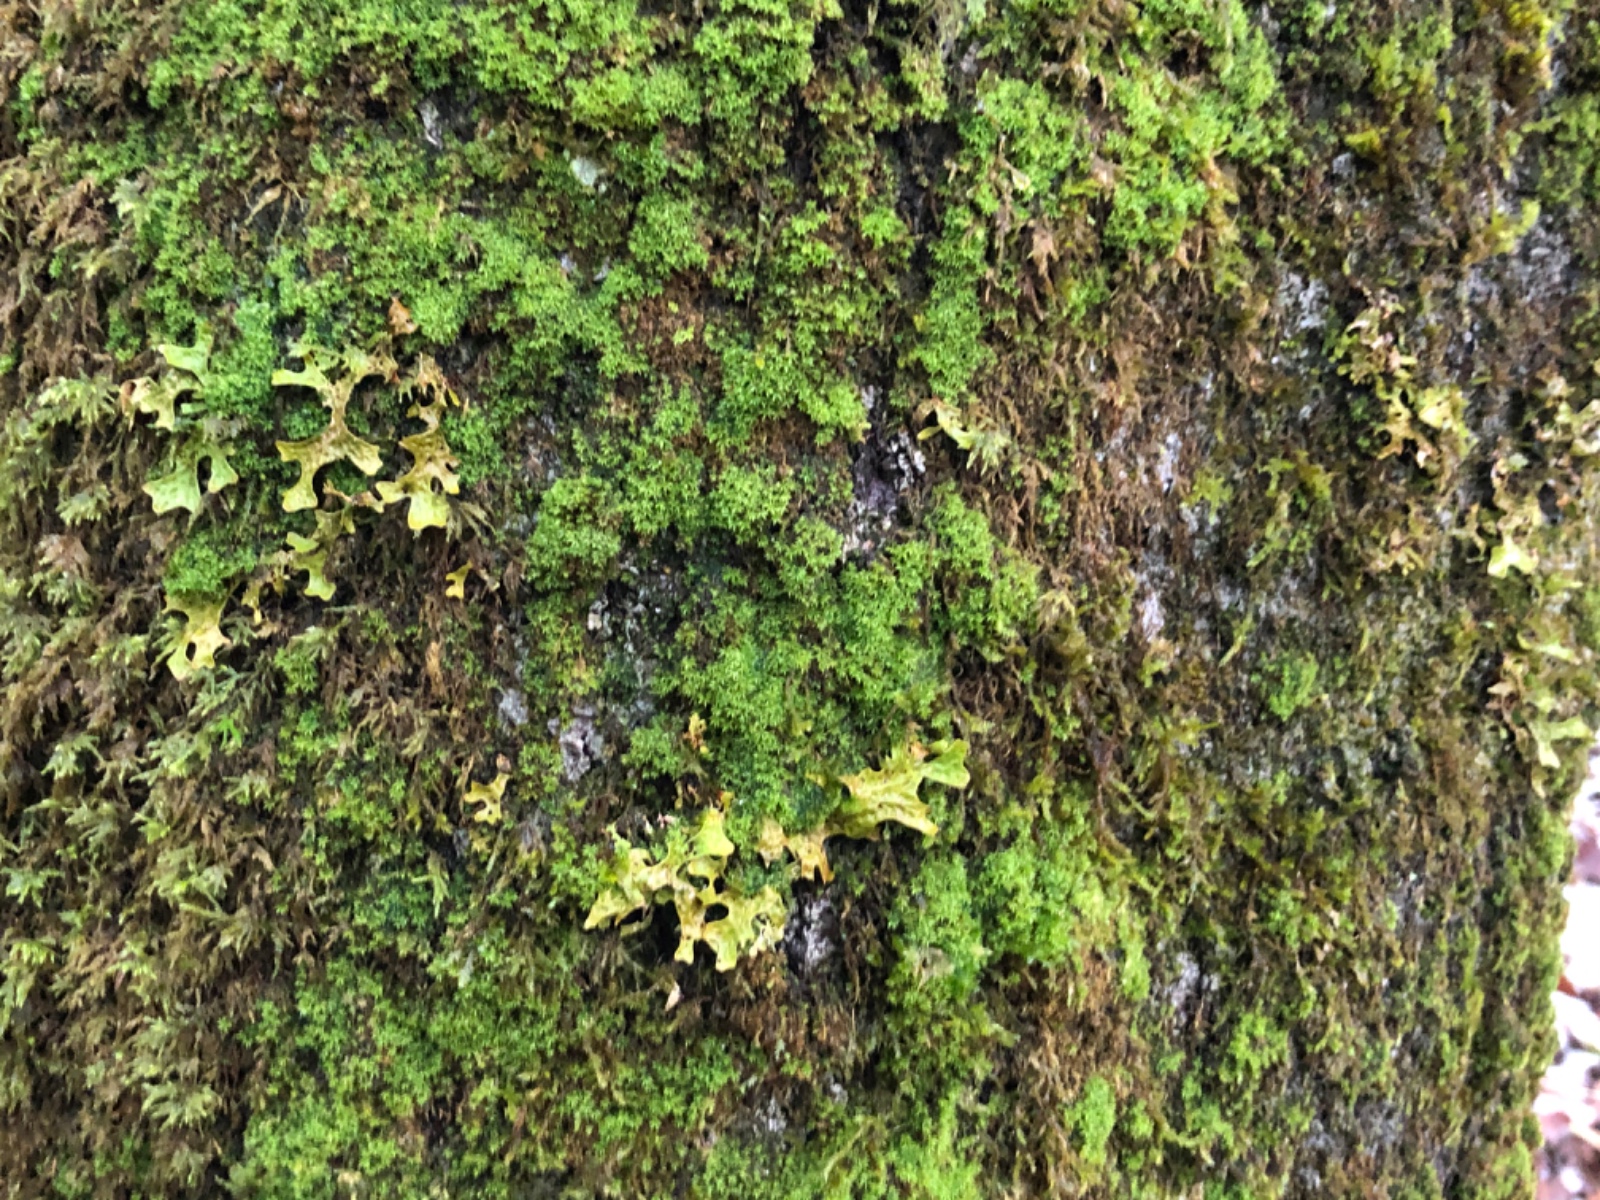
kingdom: Fungi
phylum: Ascomycota
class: Lecanoromycetes
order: Peltigerales
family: Lobariaceae
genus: Lobaria
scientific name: Lobaria pulmonaria
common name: almindelig lungelav
